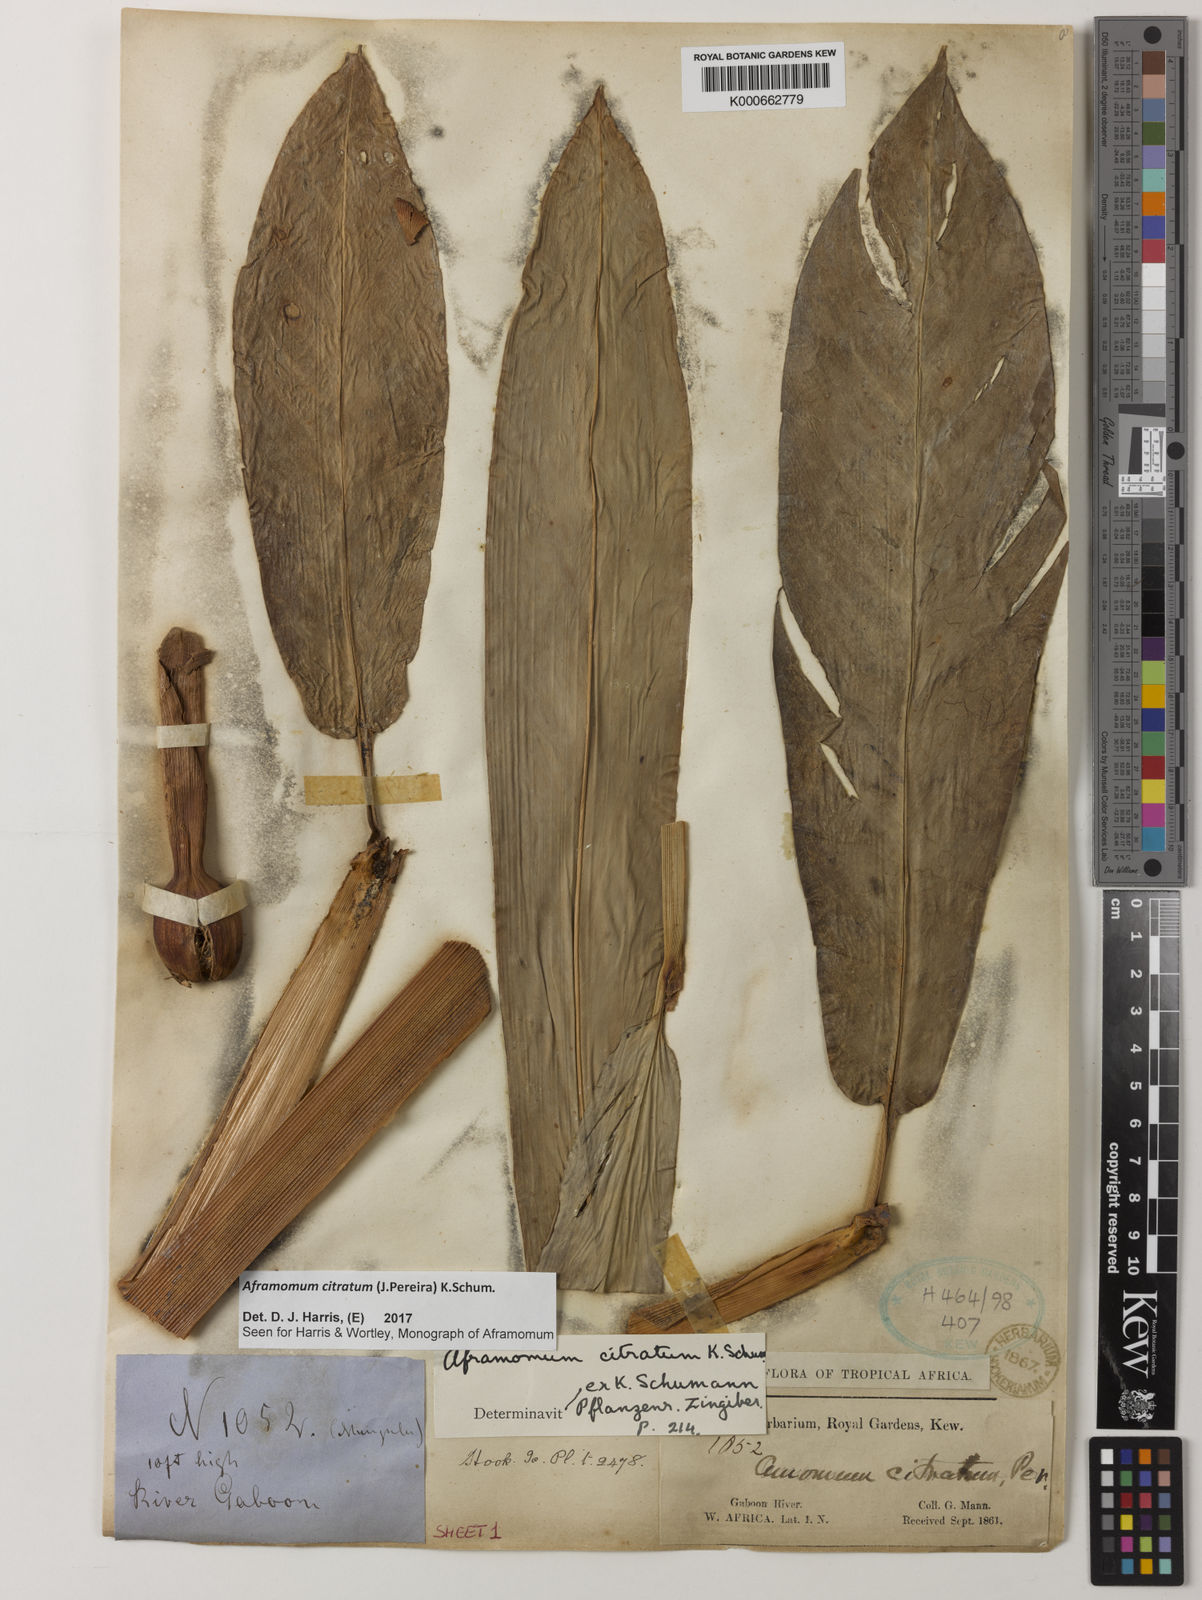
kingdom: Plantae
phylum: Tracheophyta
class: Liliopsida
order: Zingiberales
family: Zingiberaceae
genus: Aframomum
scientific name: Aframomum citratum
